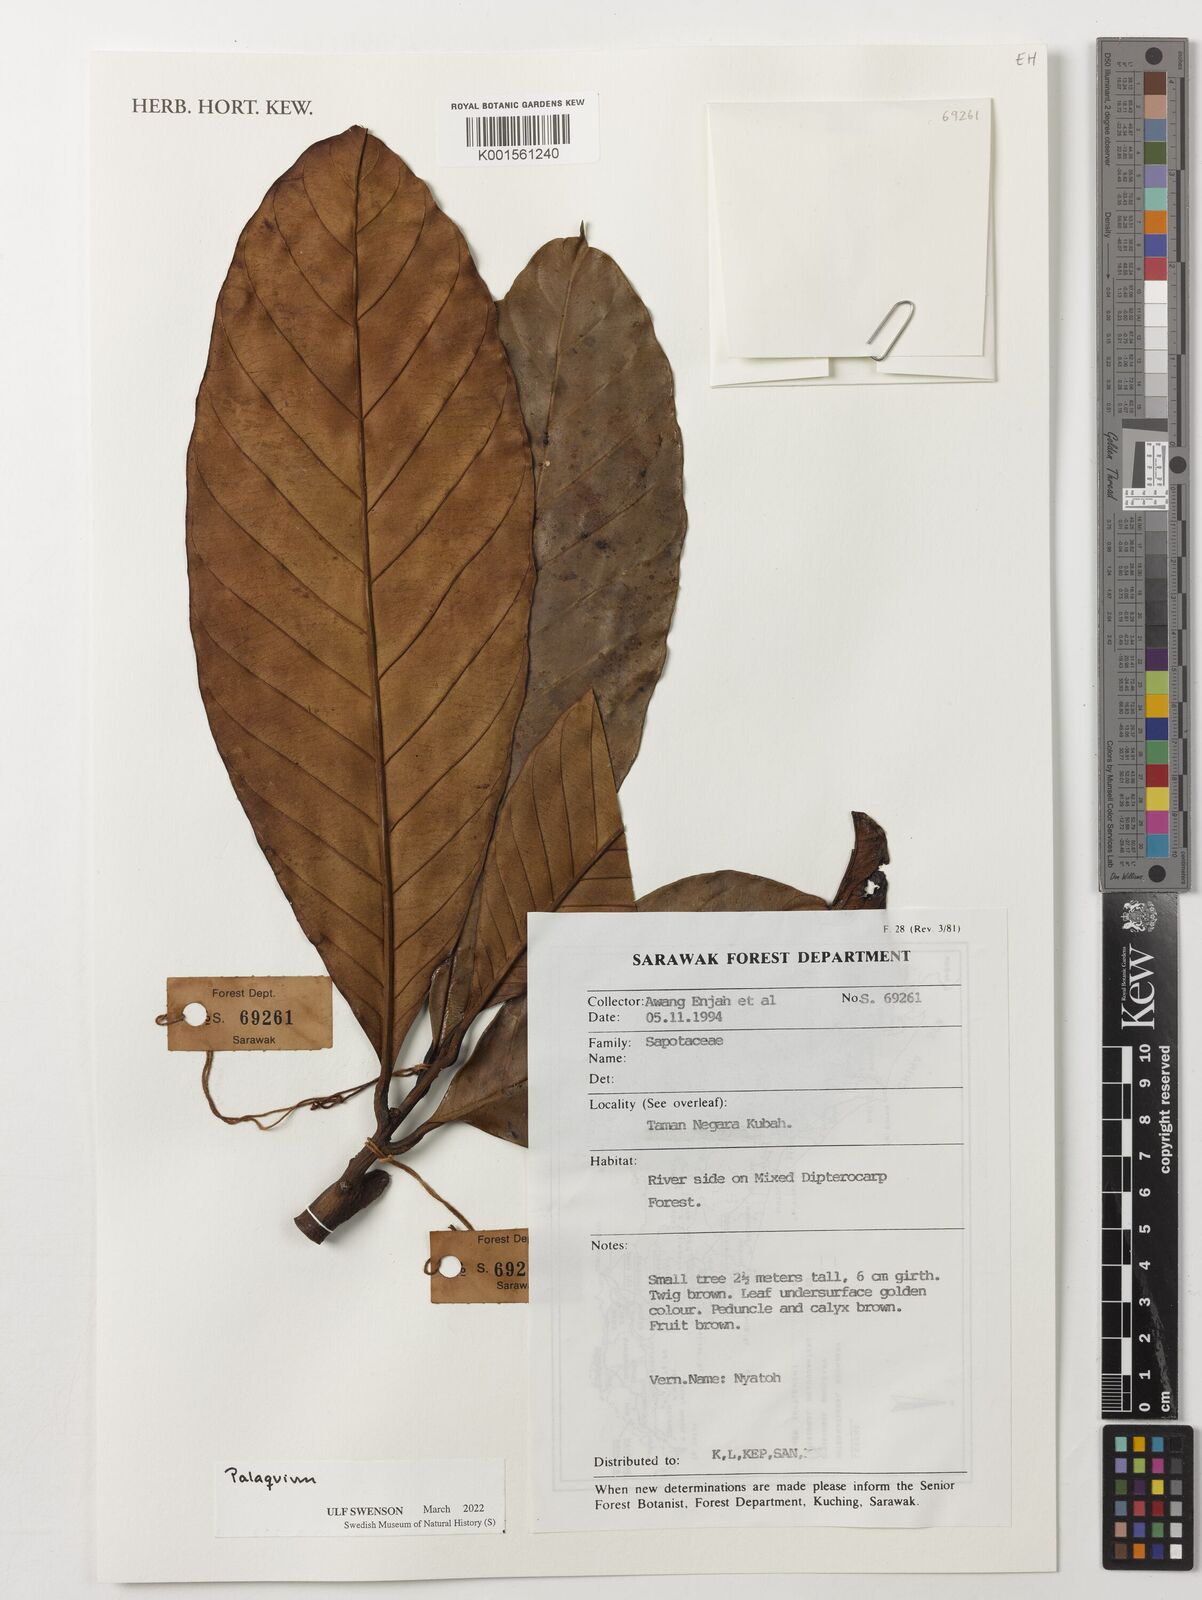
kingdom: Plantae
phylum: Tracheophyta
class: Magnoliopsida
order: Ericales
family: Sapotaceae
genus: Palaquium
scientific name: Palaquium
